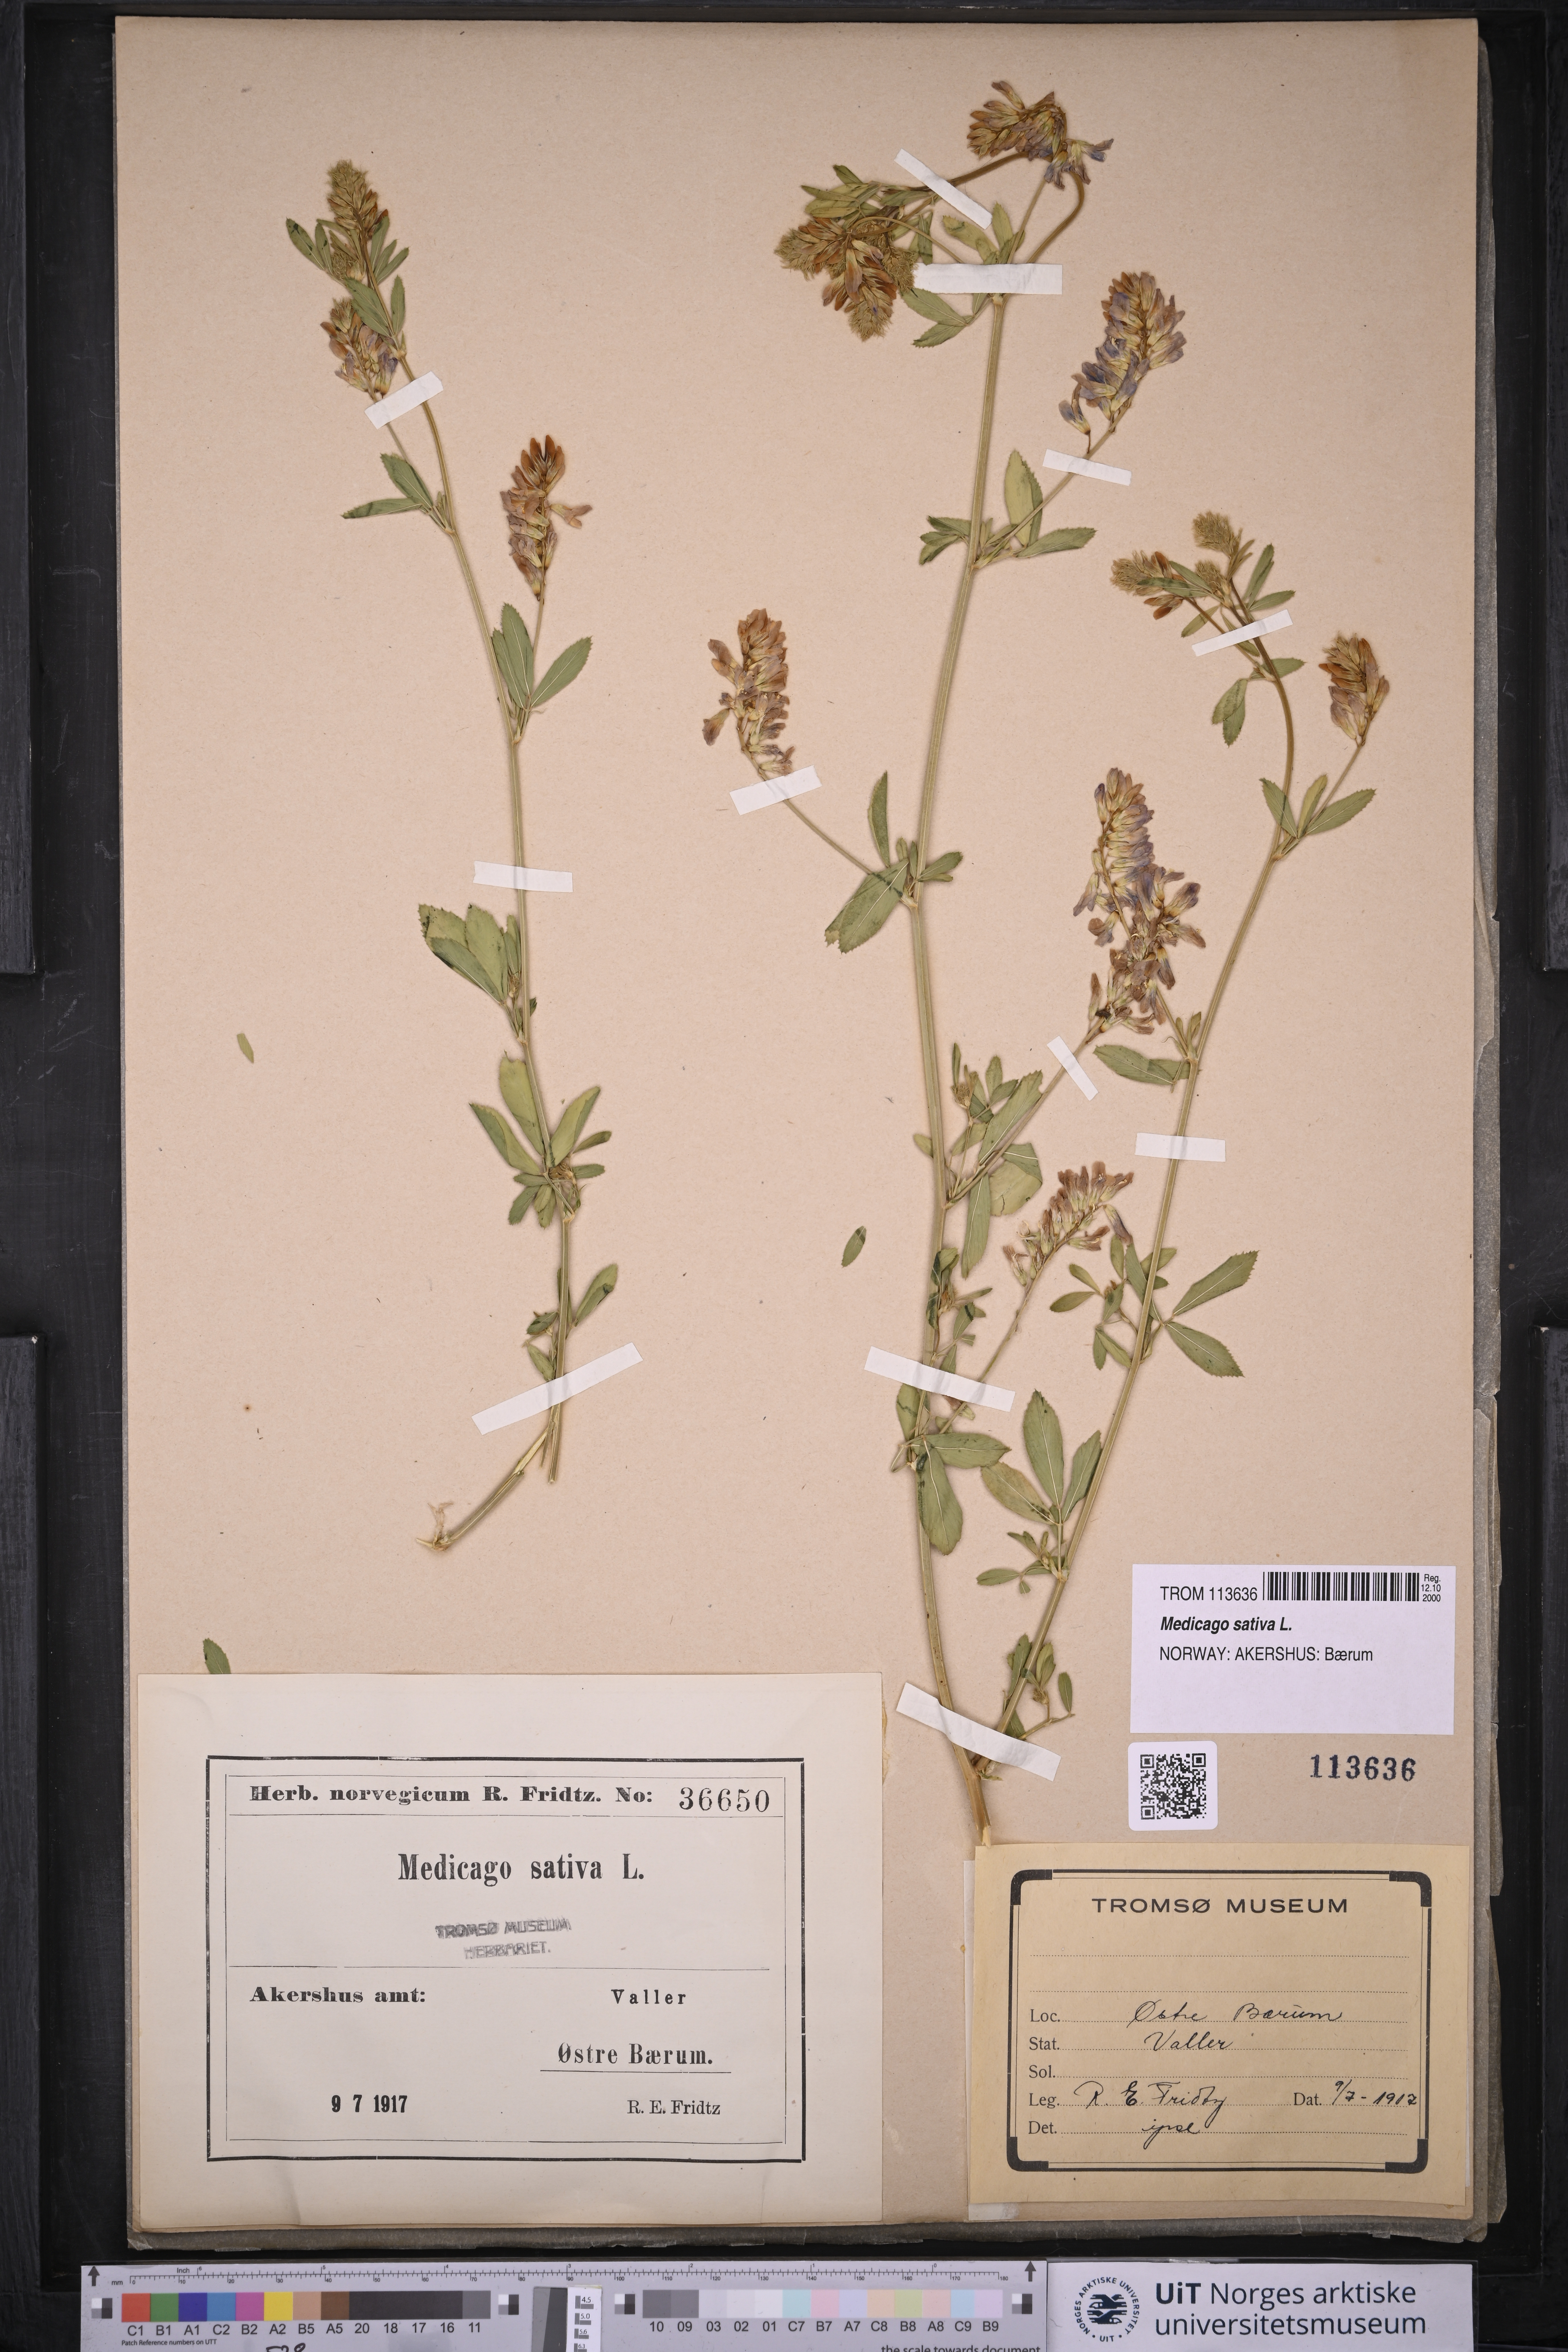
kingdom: Plantae
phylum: Tracheophyta
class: Magnoliopsida
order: Fabales
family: Fabaceae
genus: Medicago
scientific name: Medicago sativa
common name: Alfalfa
